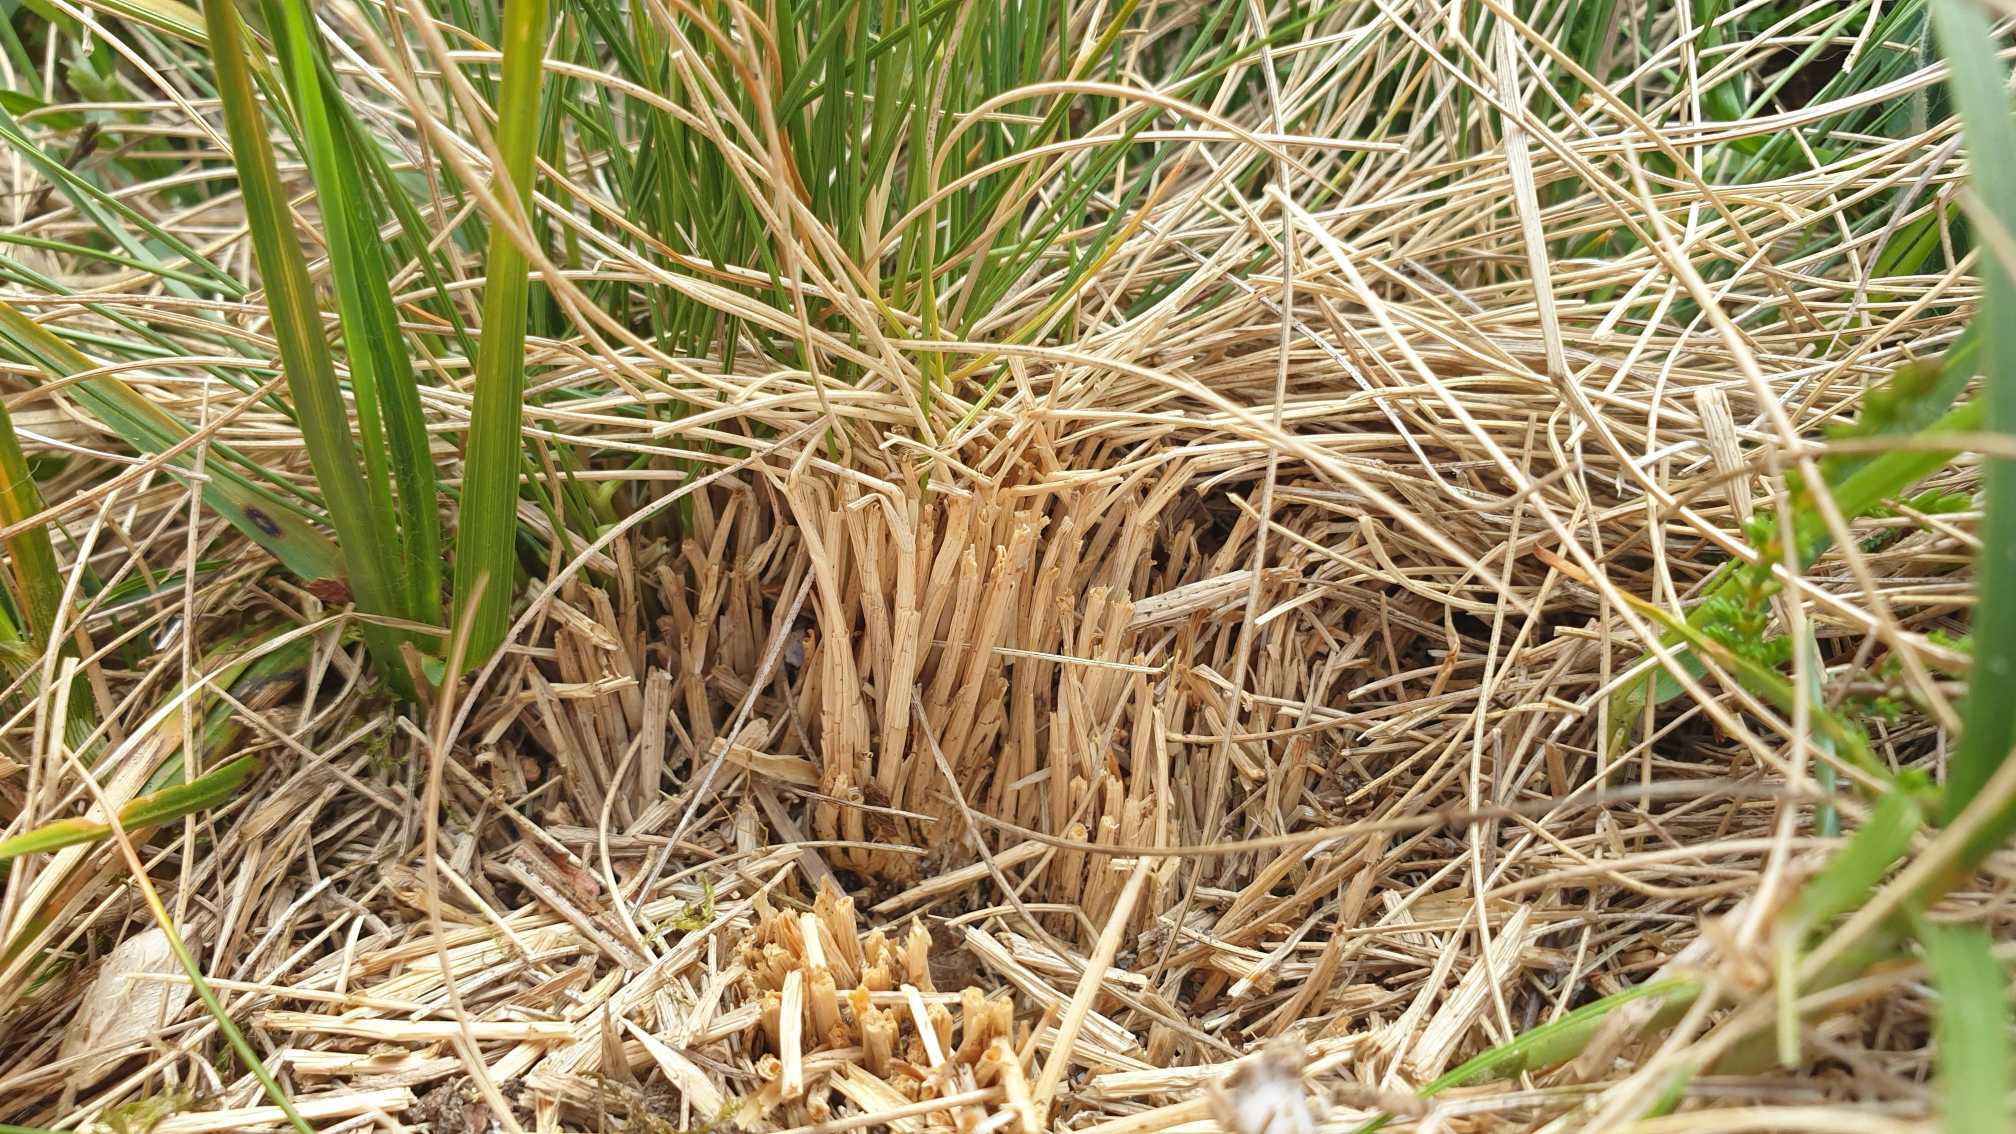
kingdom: Plantae
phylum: Tracheophyta
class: Liliopsida
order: Poales
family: Poaceae
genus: Nardus
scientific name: Nardus stricta
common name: Katteskæg
